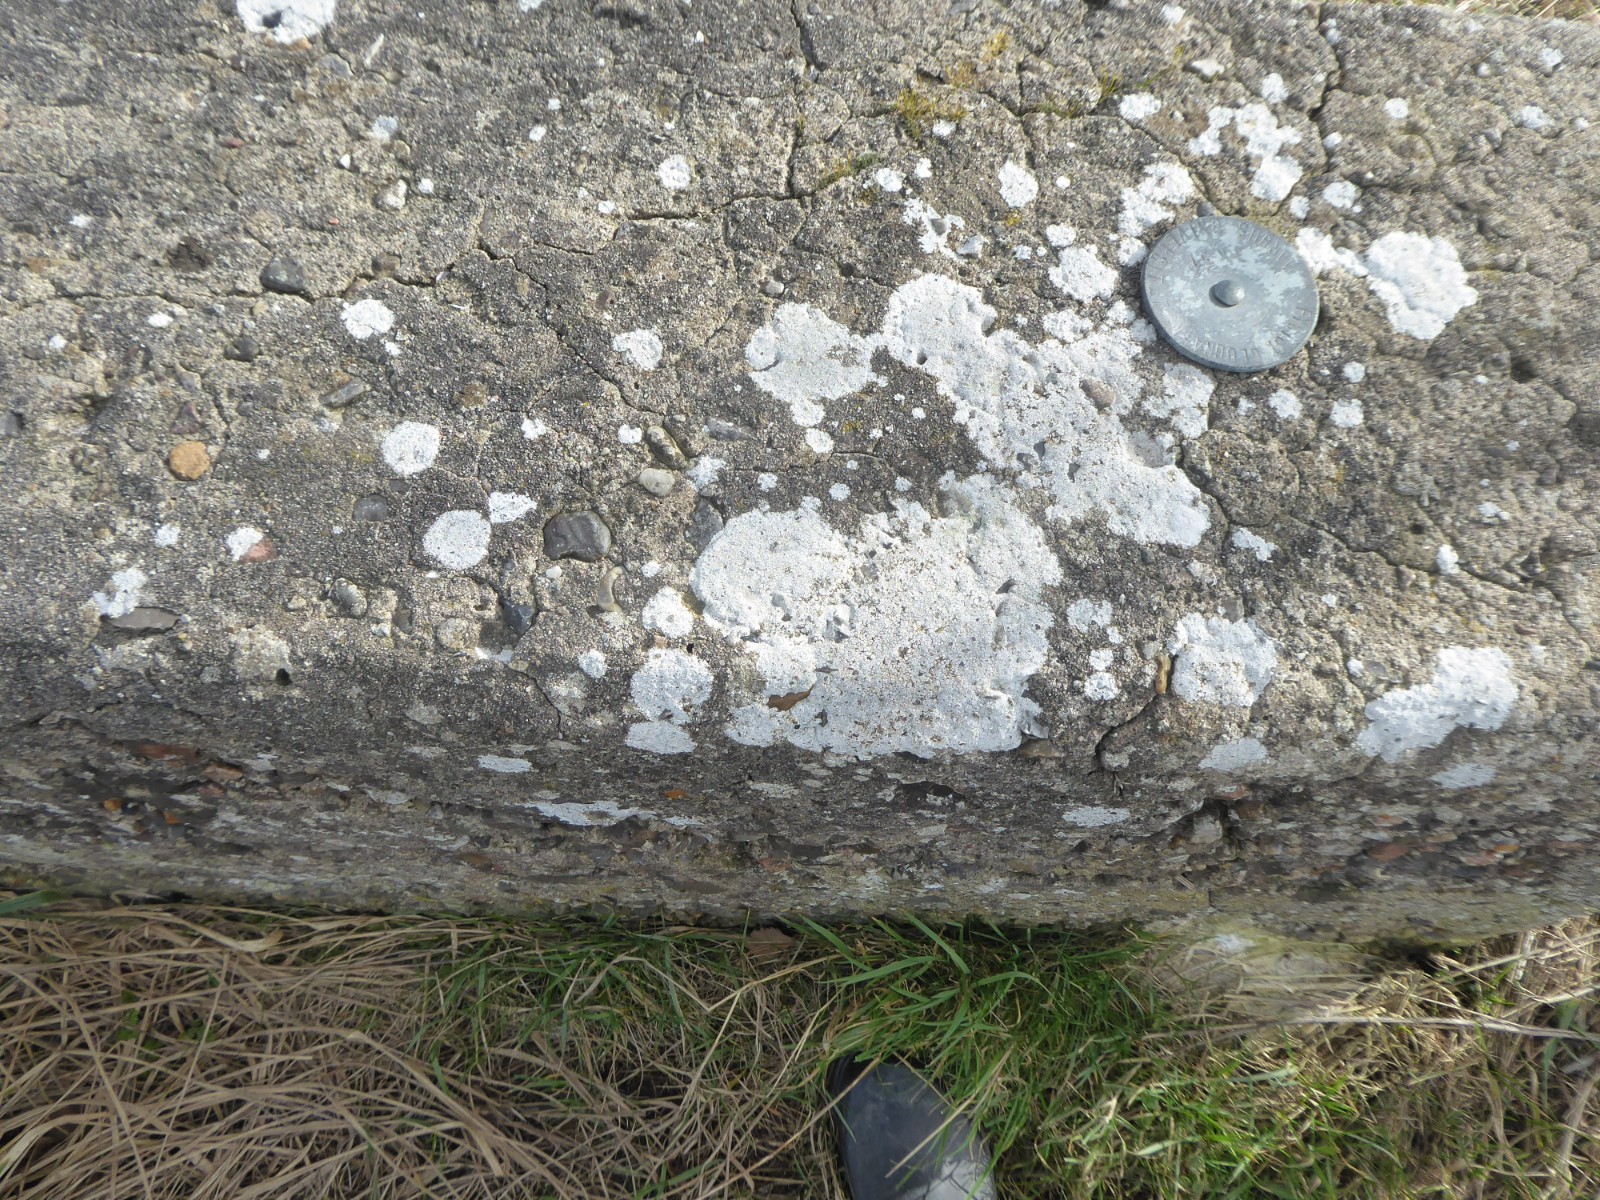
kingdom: Fungi
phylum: Ascomycota
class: Lecanoromycetes
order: Pertusariales
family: Megasporaceae
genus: Circinaria
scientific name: Circinaria calcarea
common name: kalk-hulskivelav
